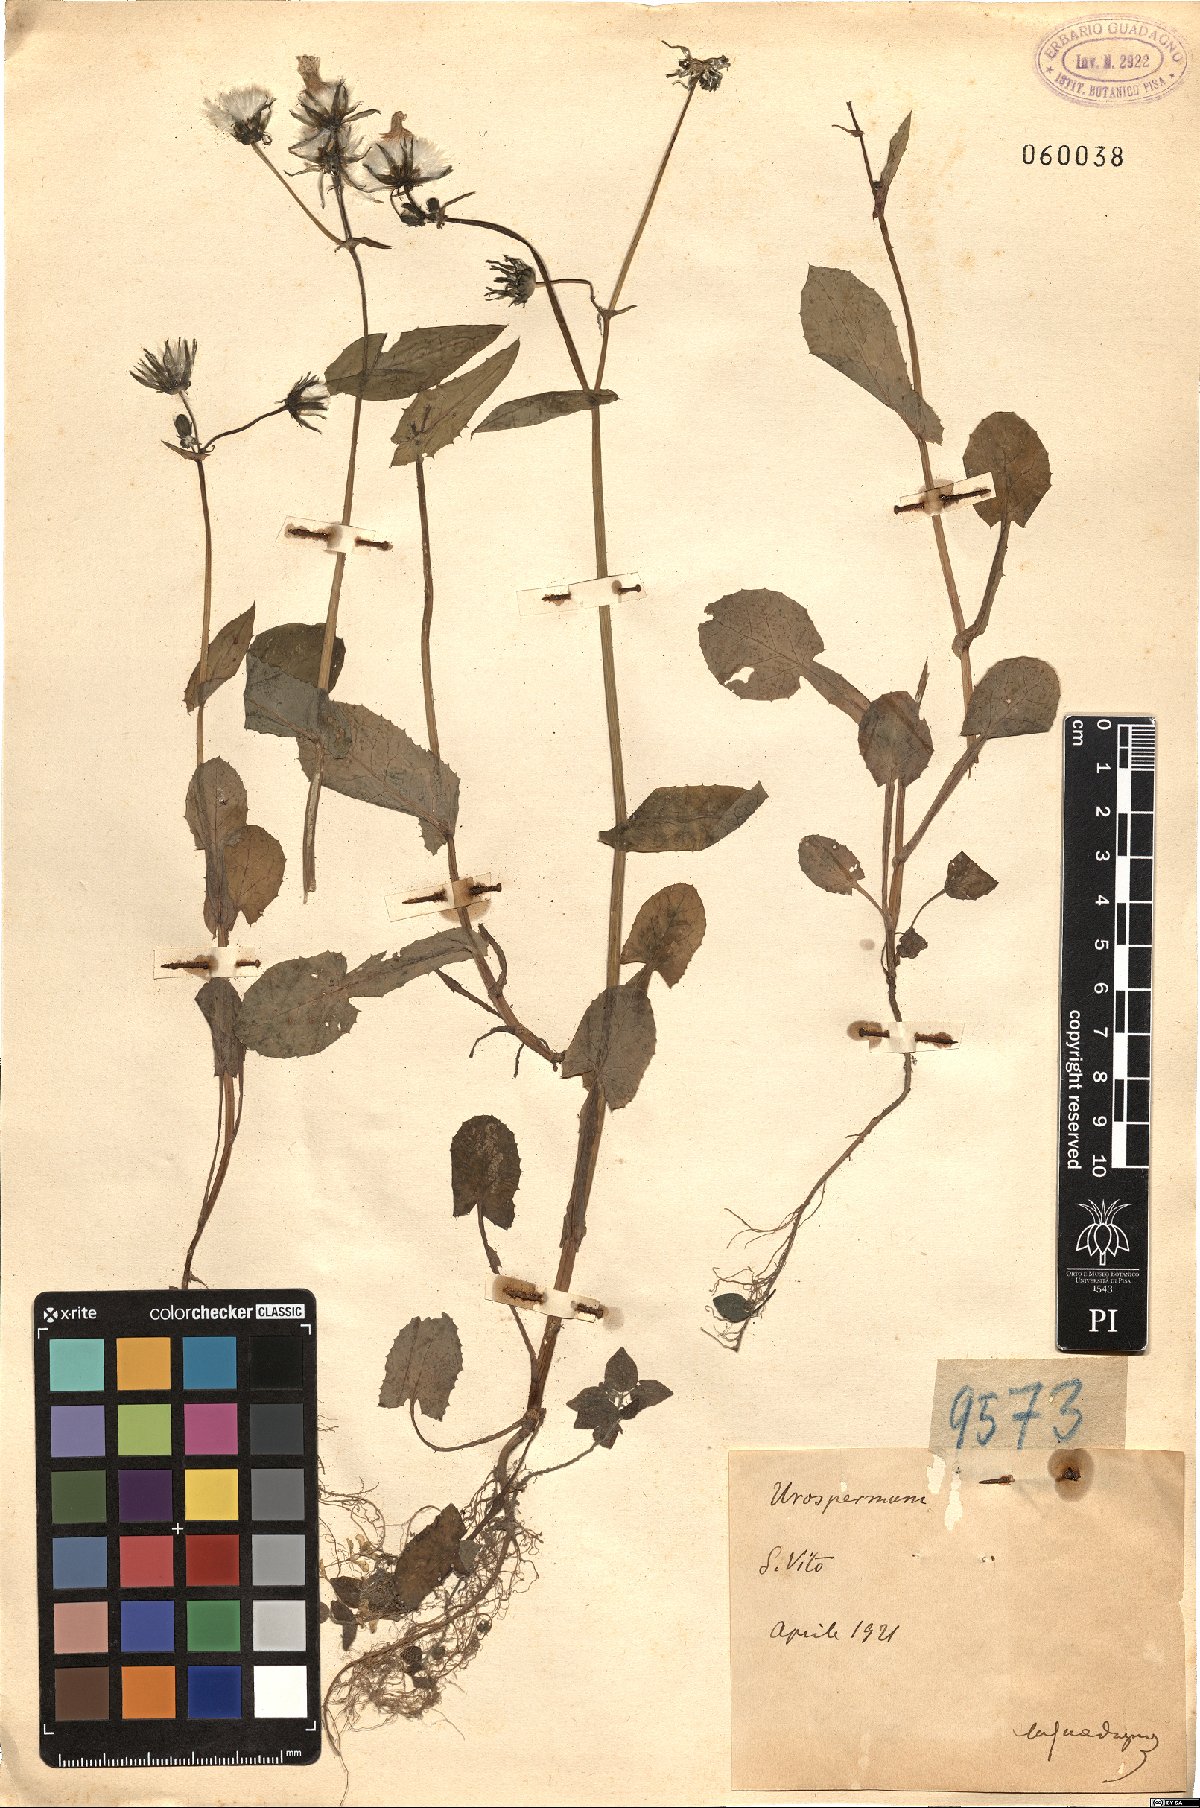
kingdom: Plantae
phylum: Tracheophyta
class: Magnoliopsida
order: Asterales
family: Asteraceae
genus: Urospermum
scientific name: Urospermum
